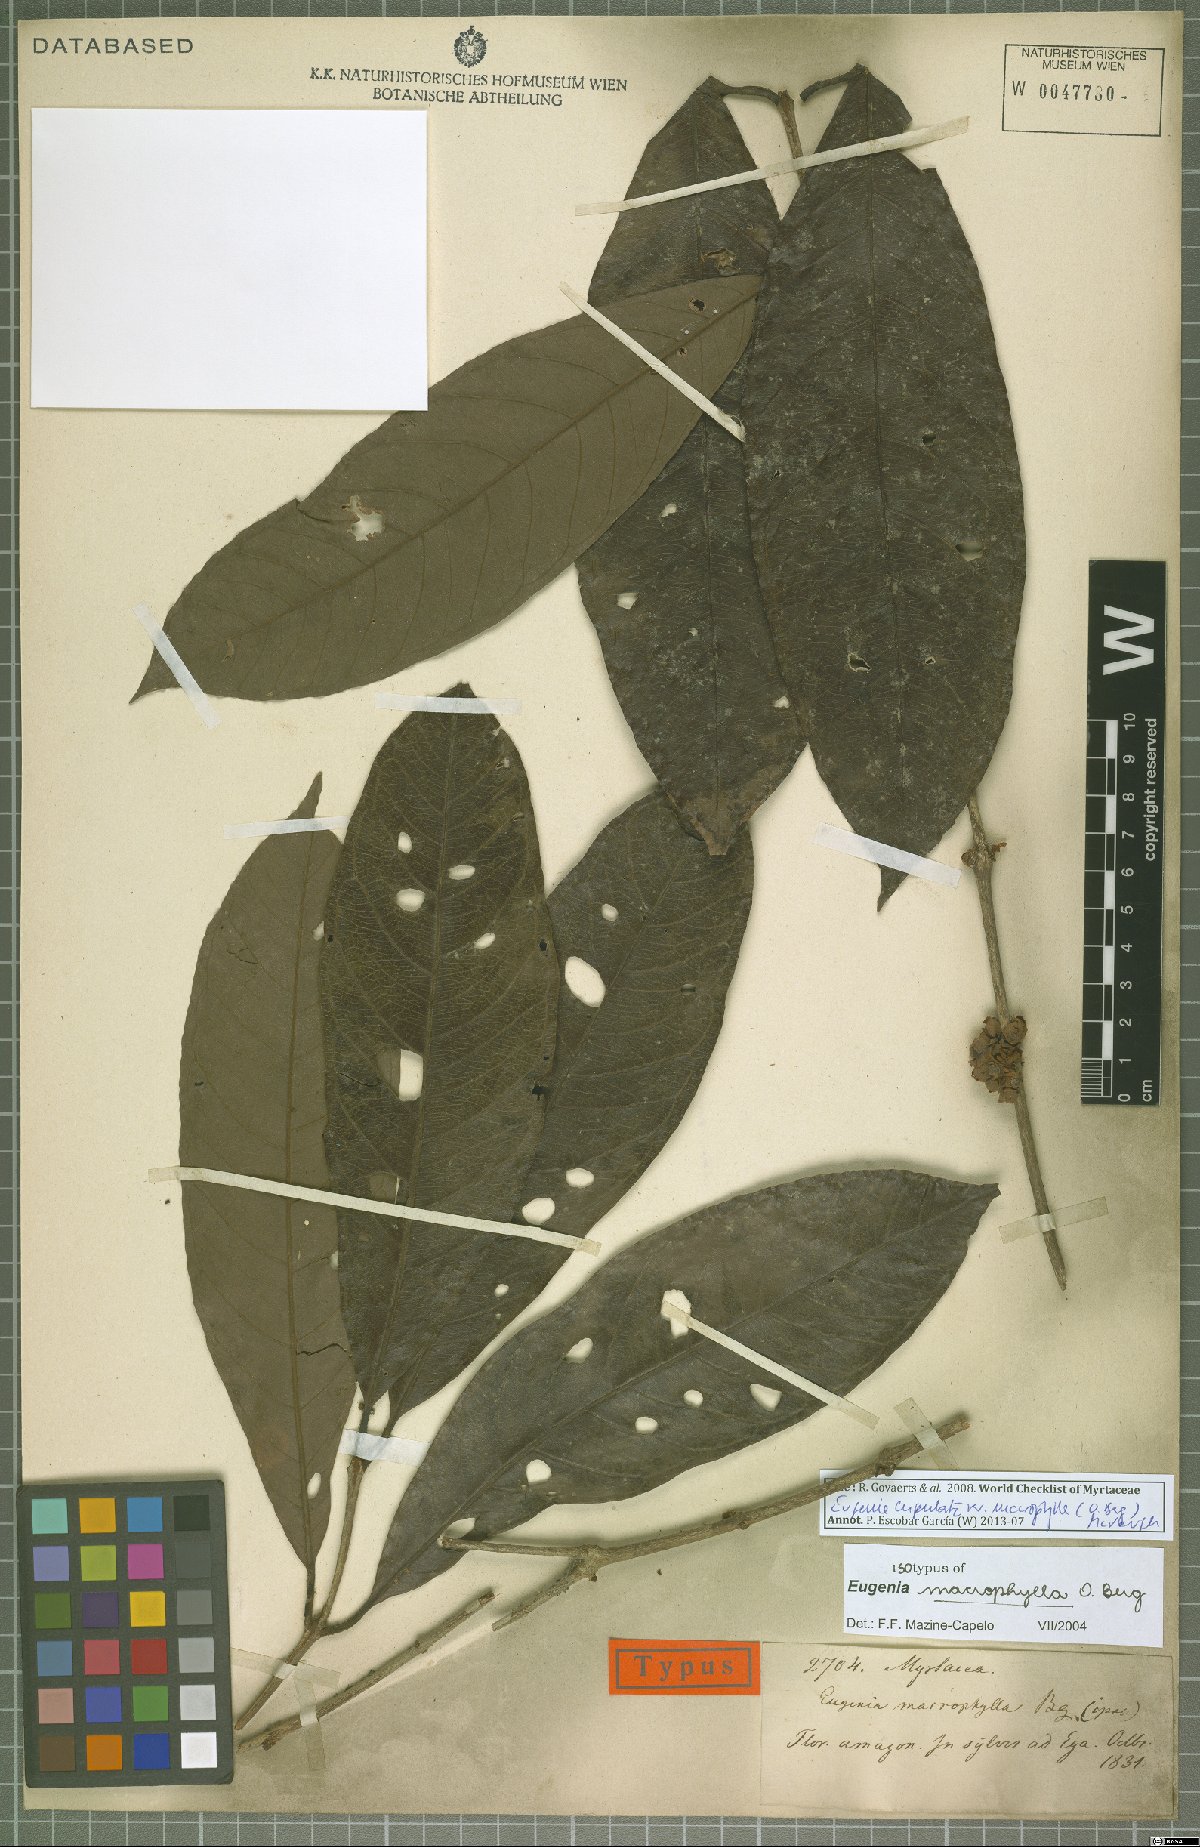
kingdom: Plantae
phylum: Tracheophyta
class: Magnoliopsida
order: Myrtales
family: Myrtaceae
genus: Eugenia
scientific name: Eugenia glomeruliflora
